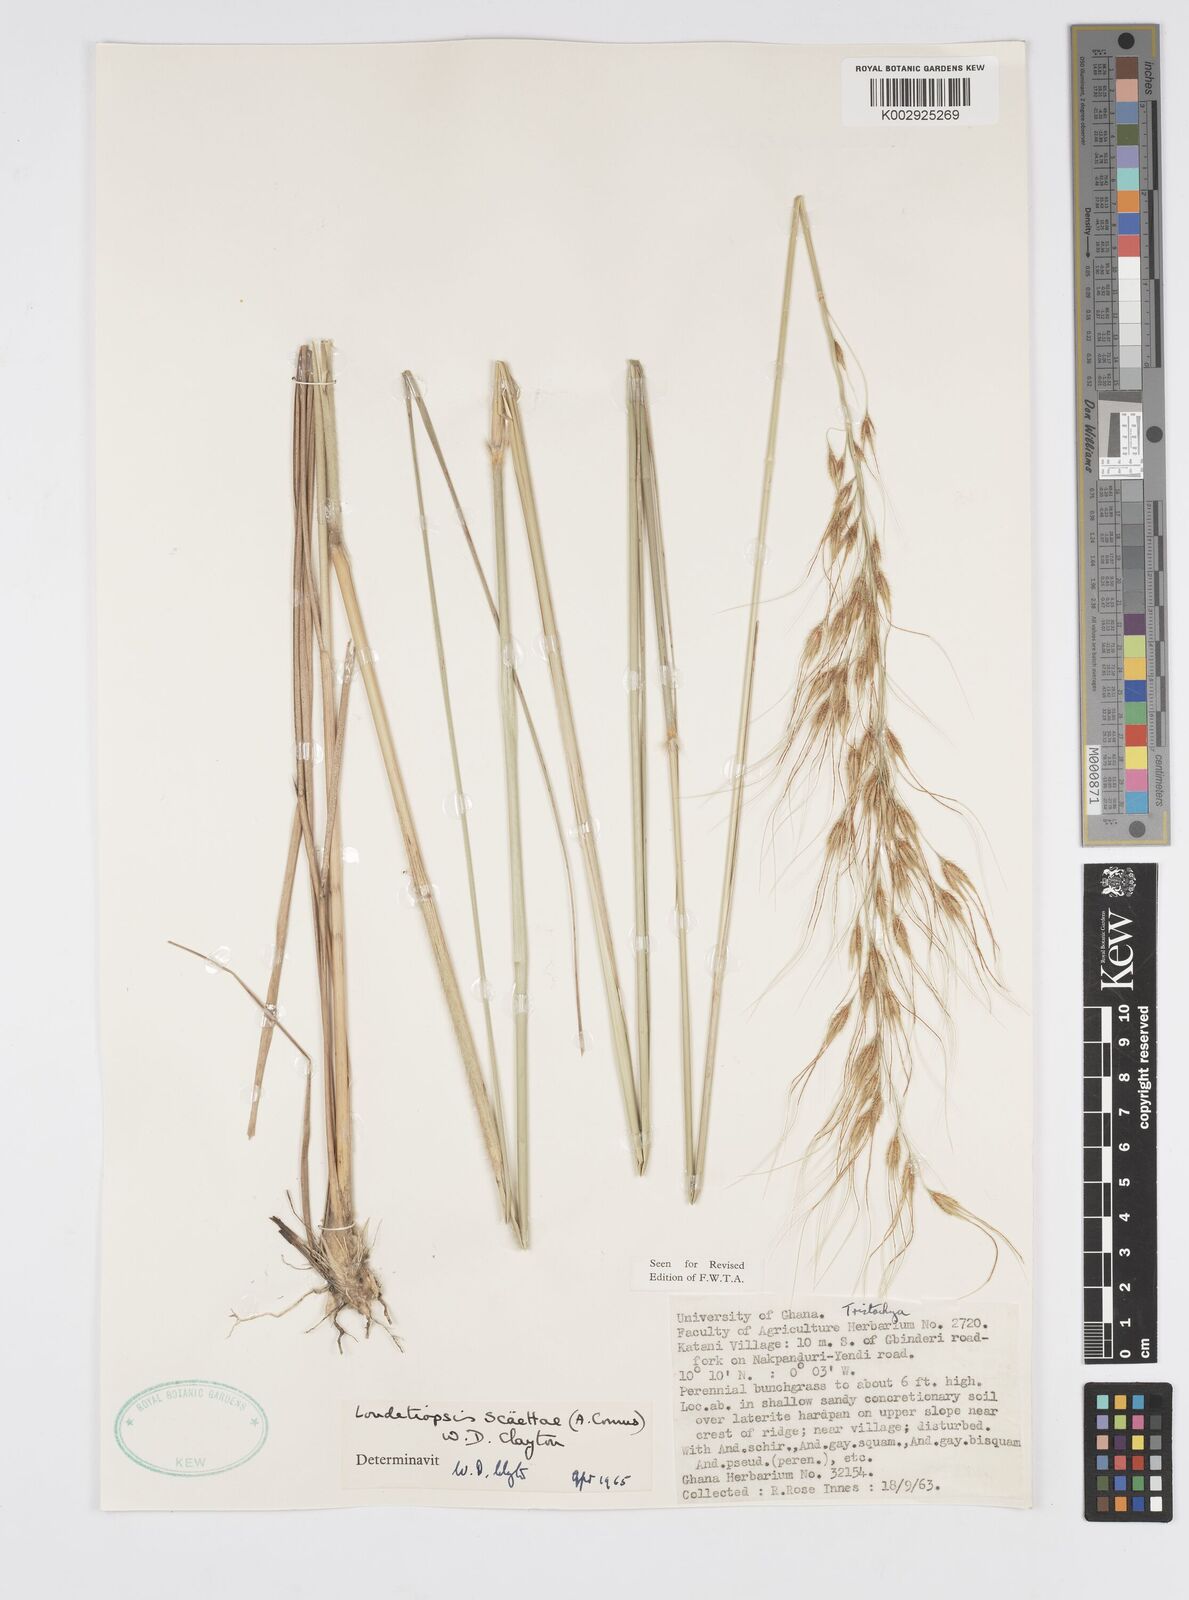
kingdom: Plantae
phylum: Tracheophyta
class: Liliopsida
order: Poales
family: Poaceae
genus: Loudetiopsis
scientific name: Loudetiopsis scaettae
